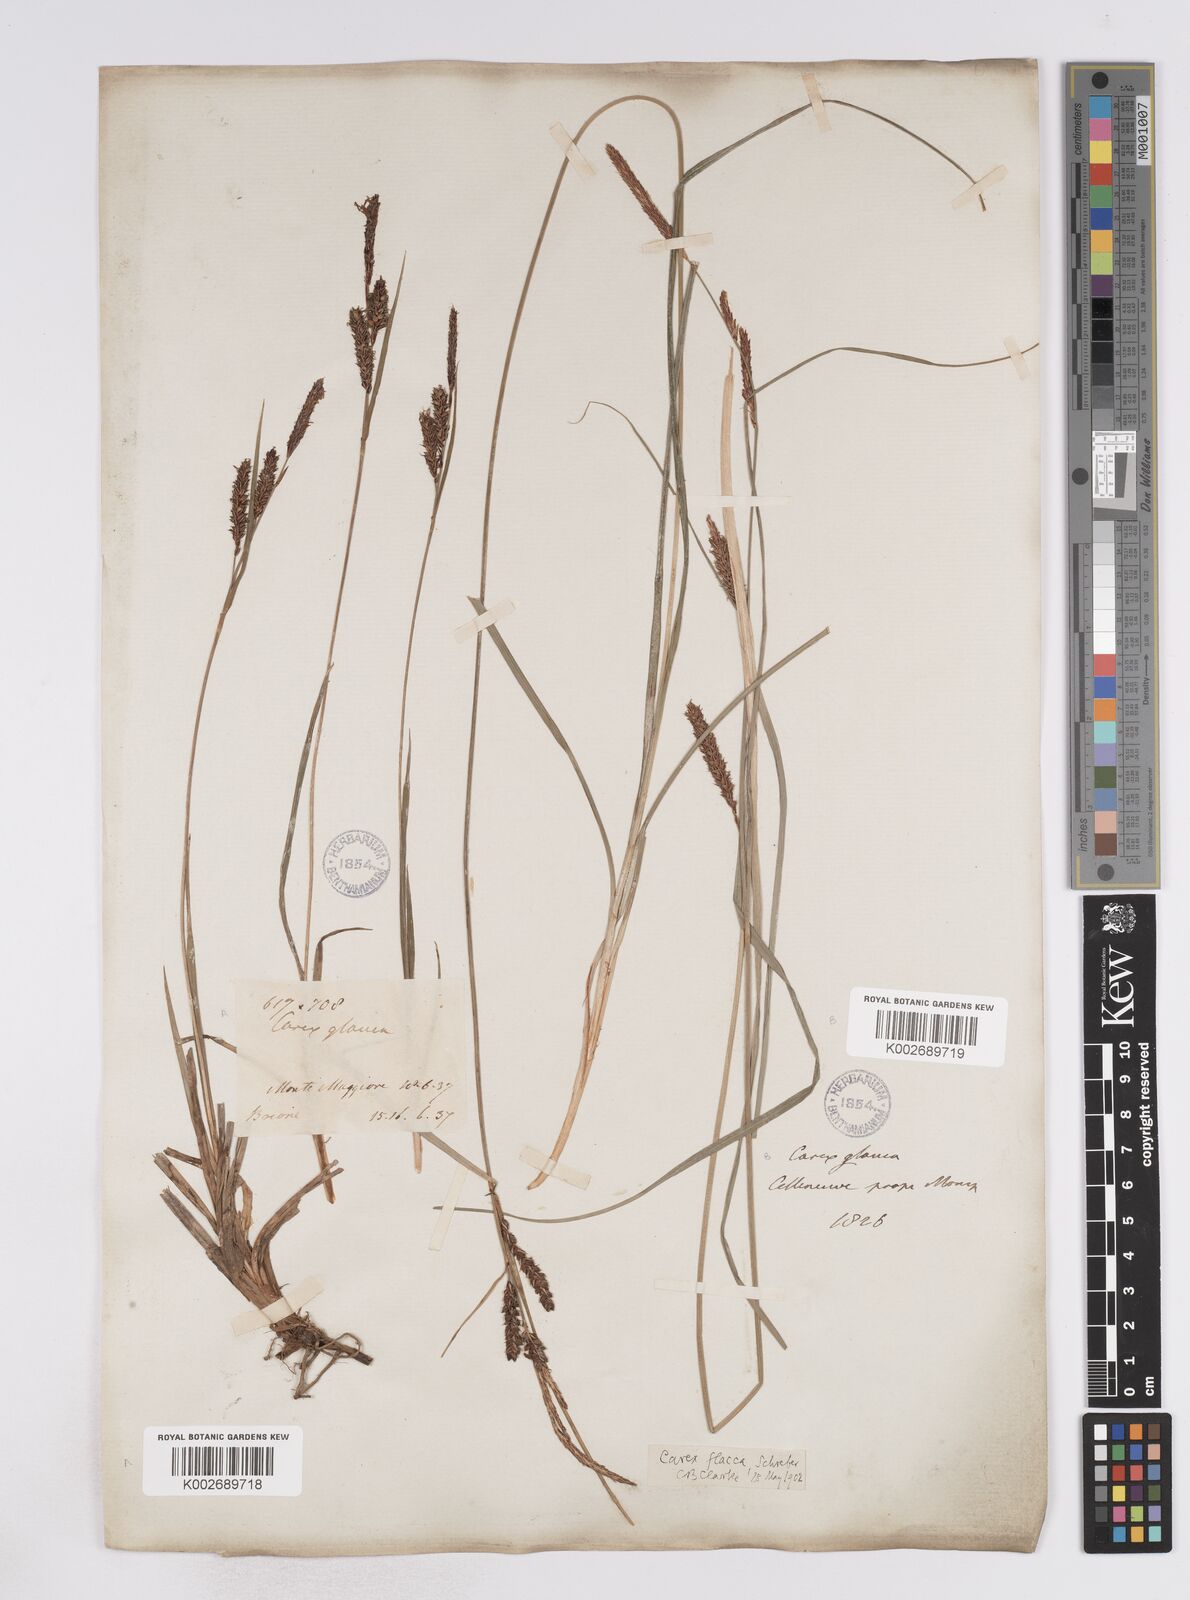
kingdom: Plantae
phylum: Tracheophyta
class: Liliopsida
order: Poales
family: Cyperaceae
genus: Carex
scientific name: Carex flacca
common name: Glaucous sedge
